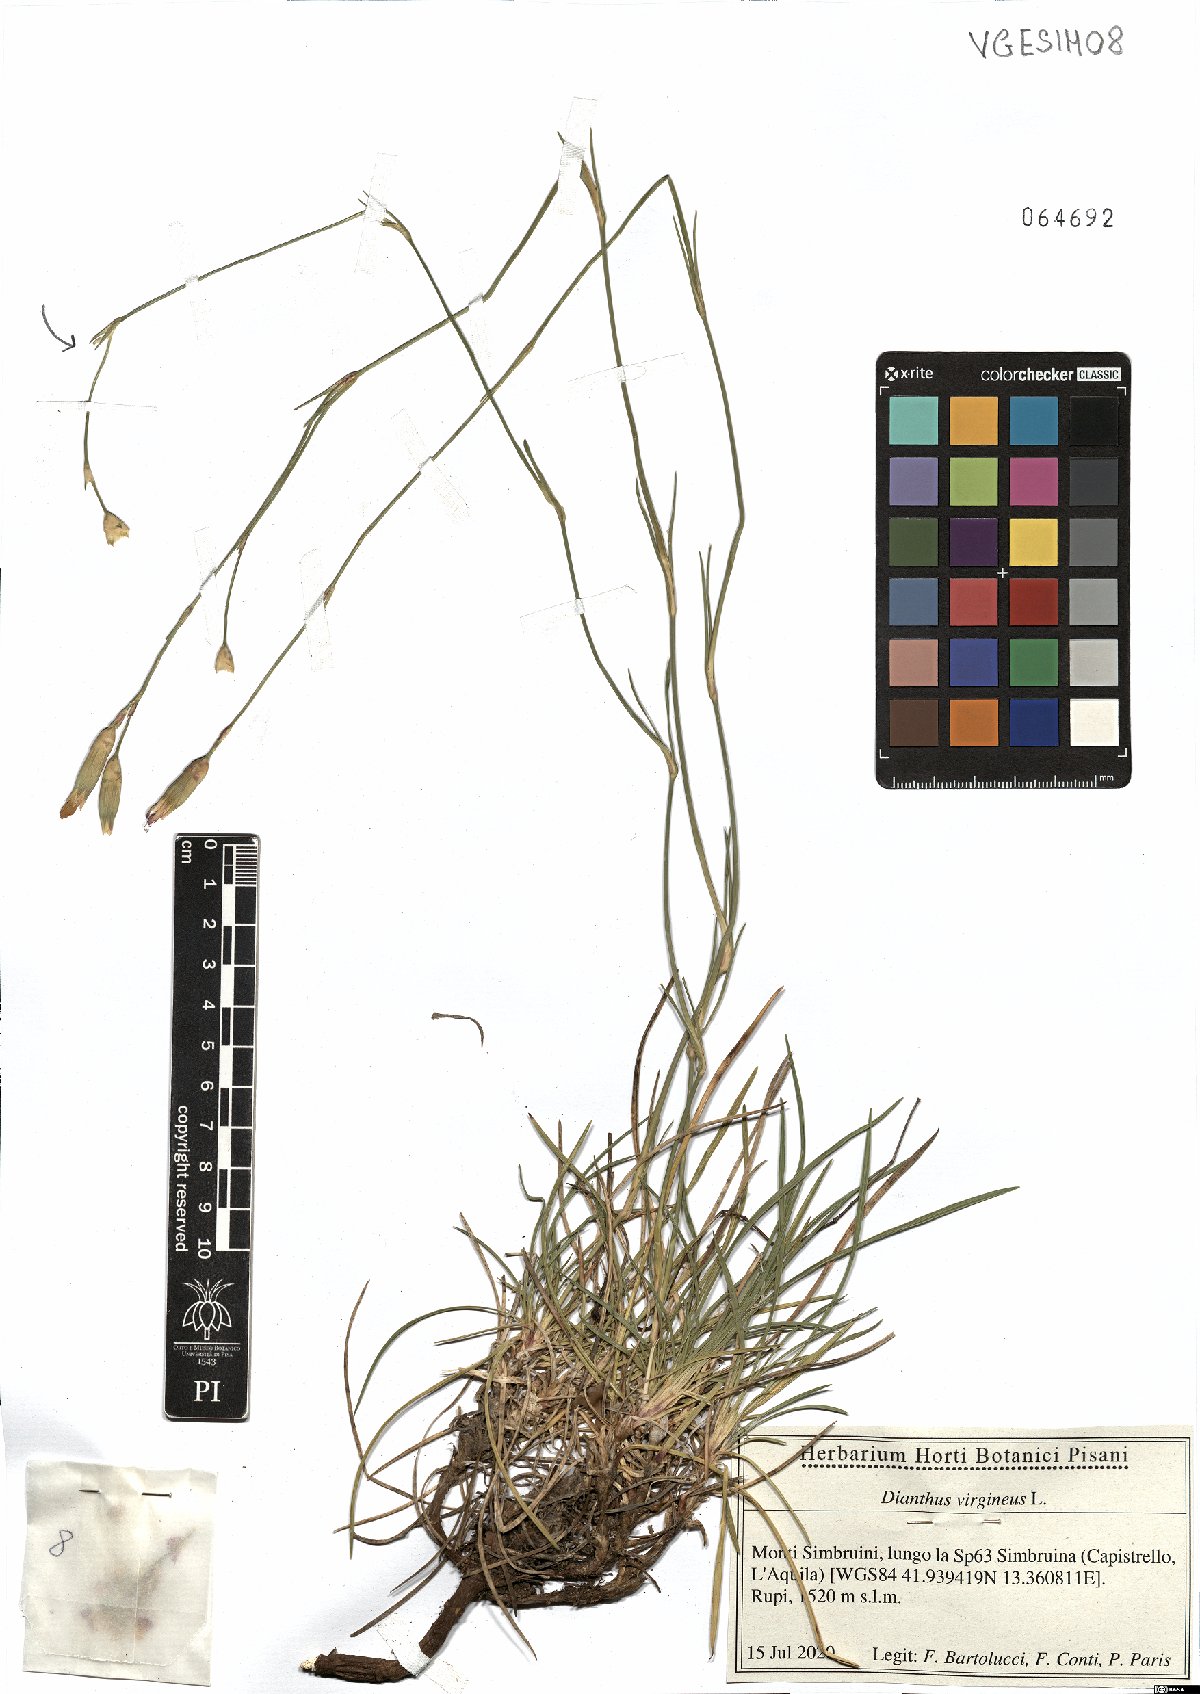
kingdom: Plantae
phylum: Tracheophyta
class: Magnoliopsida
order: Caryophyllales
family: Caryophyllaceae
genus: Dianthus
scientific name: Dianthus virgineus
